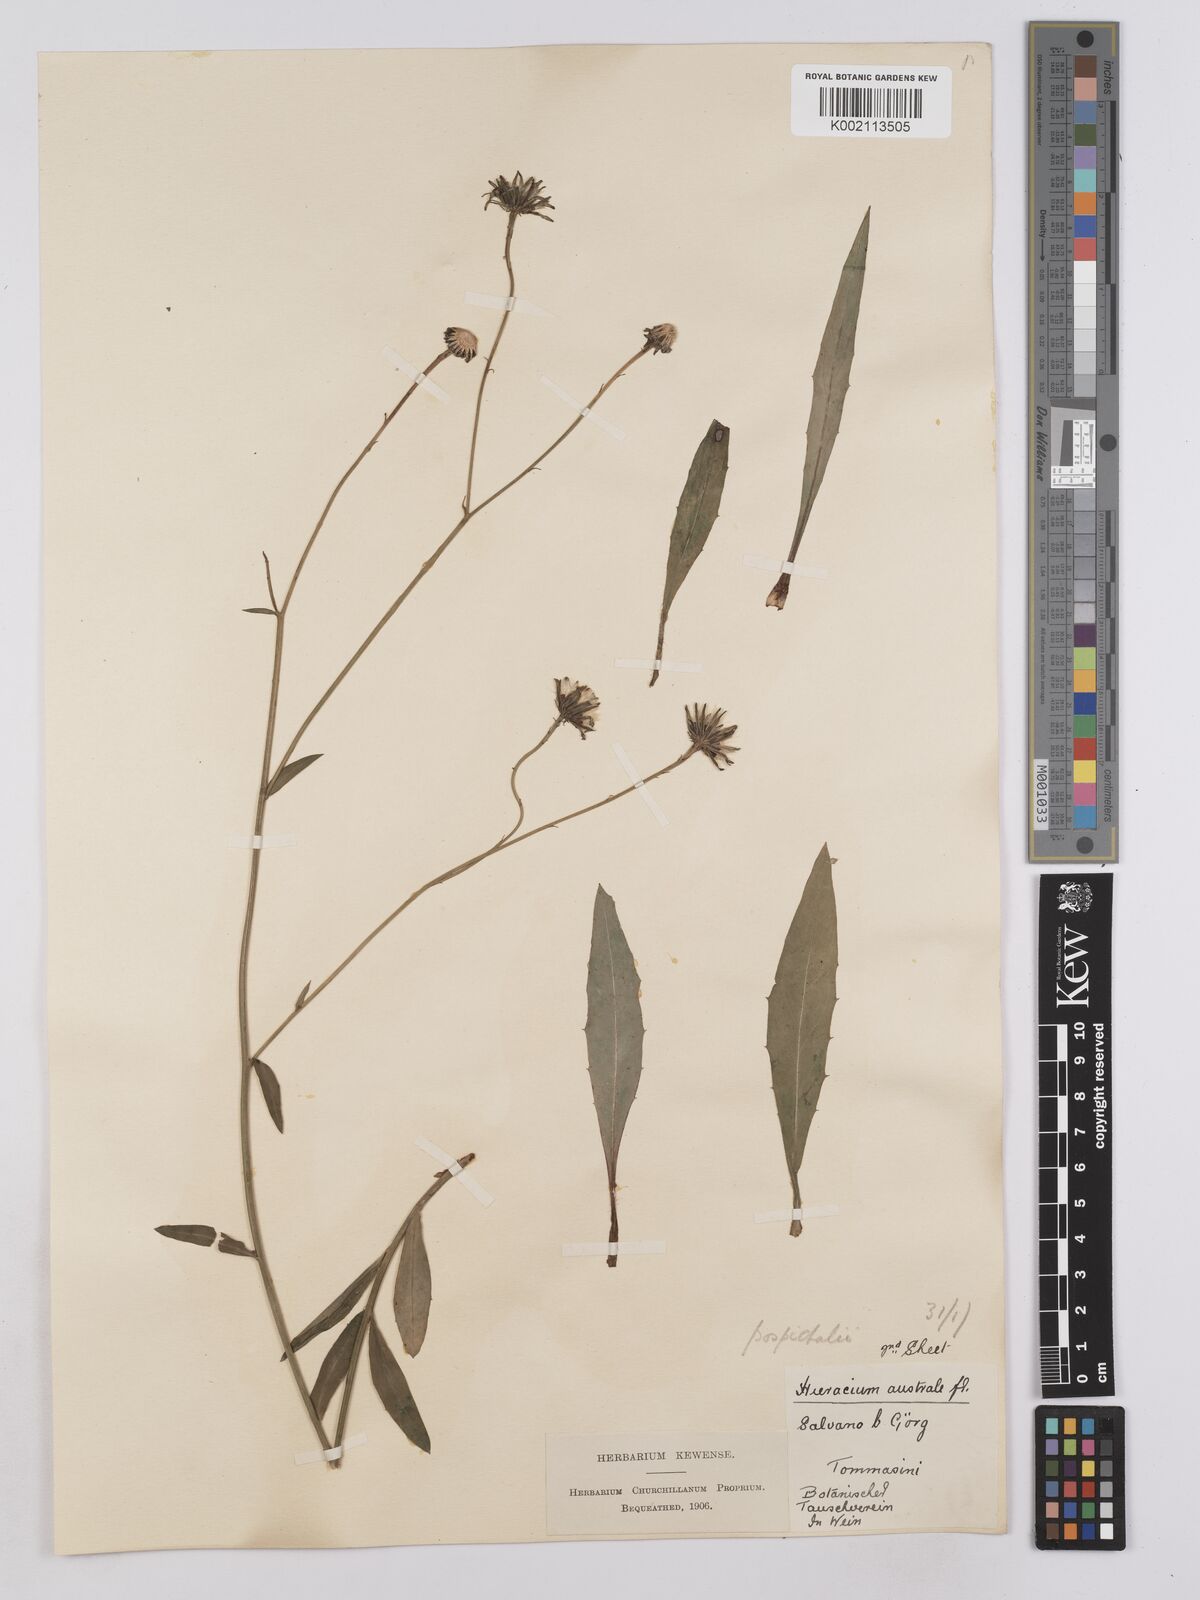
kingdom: Plantae
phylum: Tracheophyta
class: Magnoliopsida
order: Asterales
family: Asteraceae
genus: Hieracium
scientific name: Hieracium porrifolium
